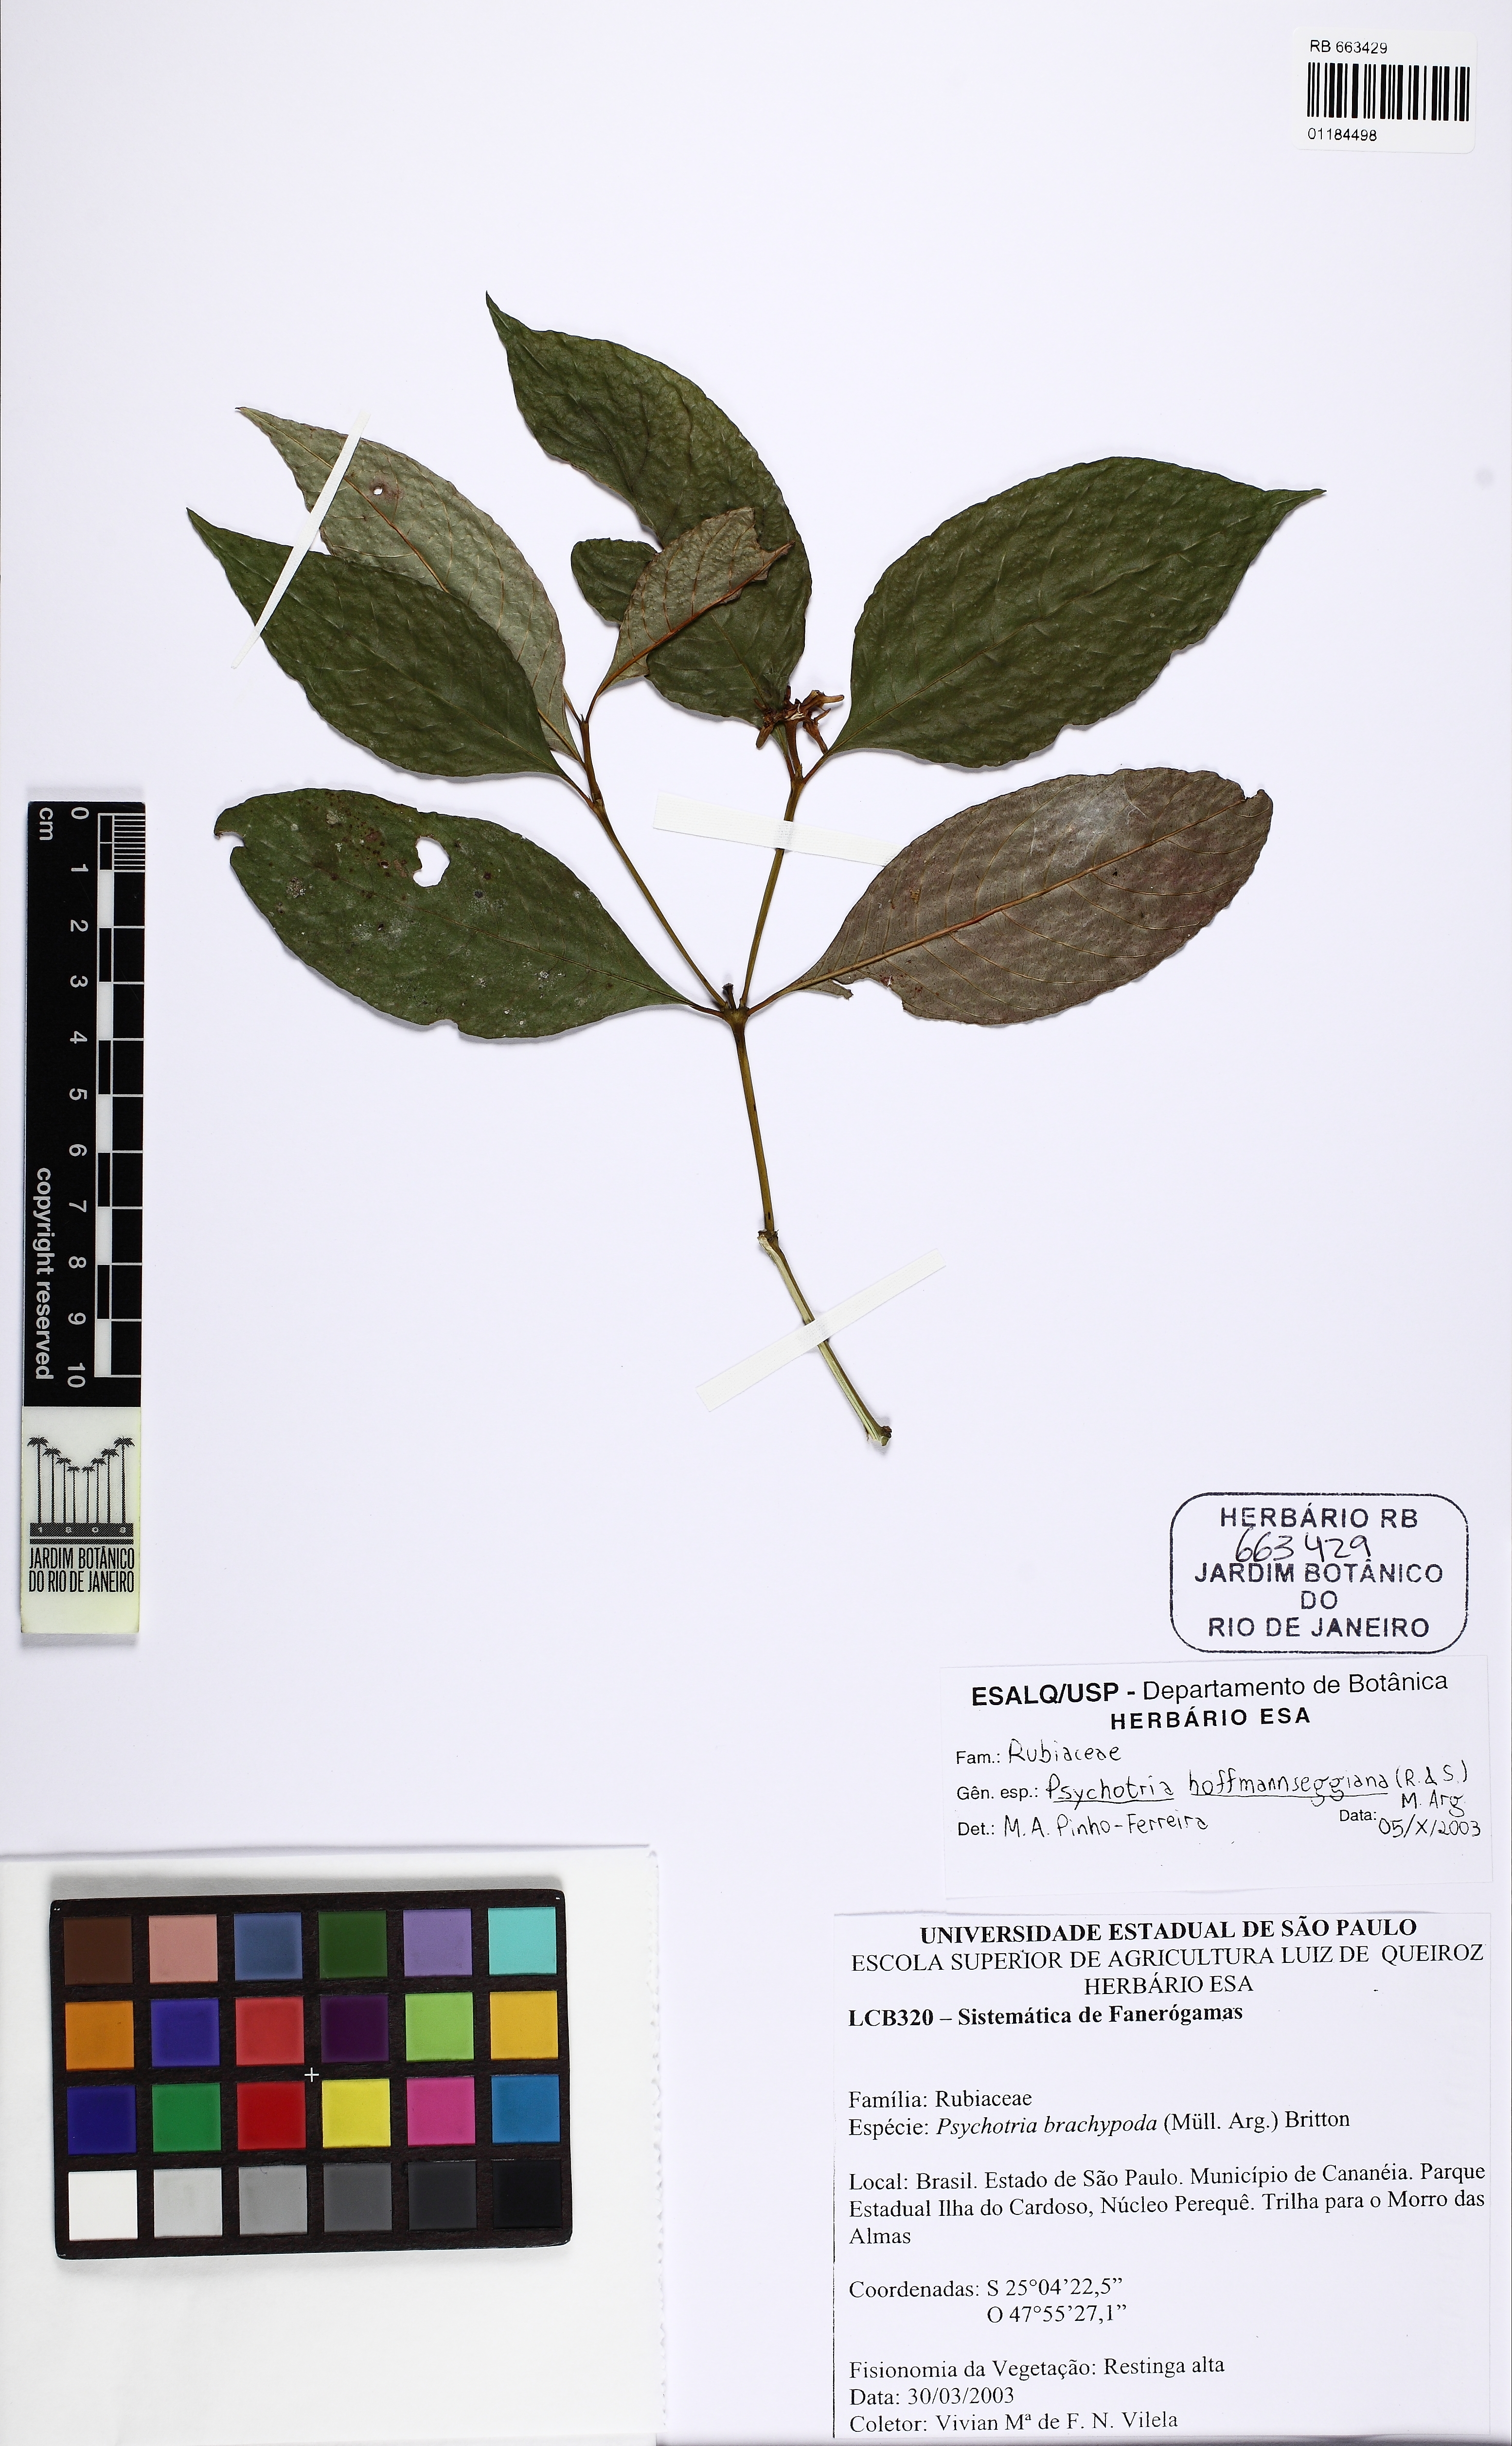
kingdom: Plantae
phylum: Tracheophyta
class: Magnoliopsida
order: Gentianales
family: Rubiaceae
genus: Palicourea
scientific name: Palicourea hoffmannseggiana
